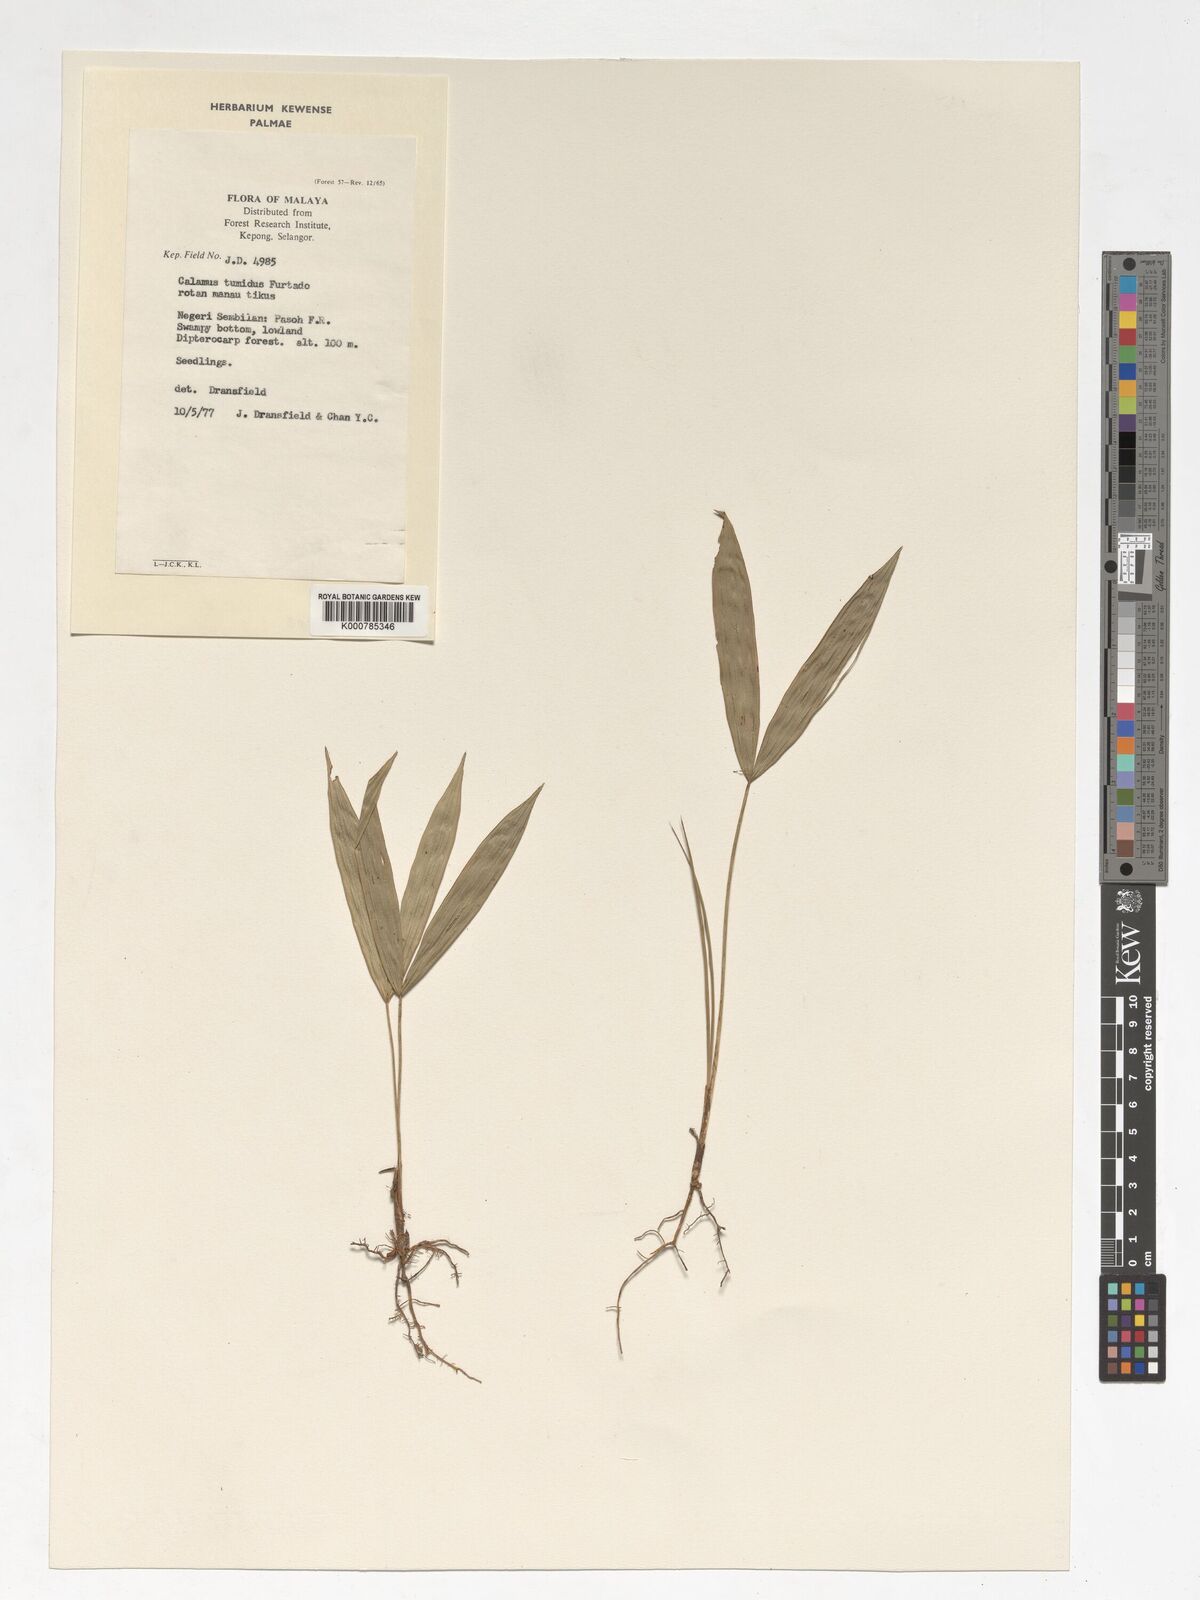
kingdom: Plantae
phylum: Tracheophyta
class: Liliopsida
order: Arecales
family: Arecaceae
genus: Calamus
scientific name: Calamus tumidus
